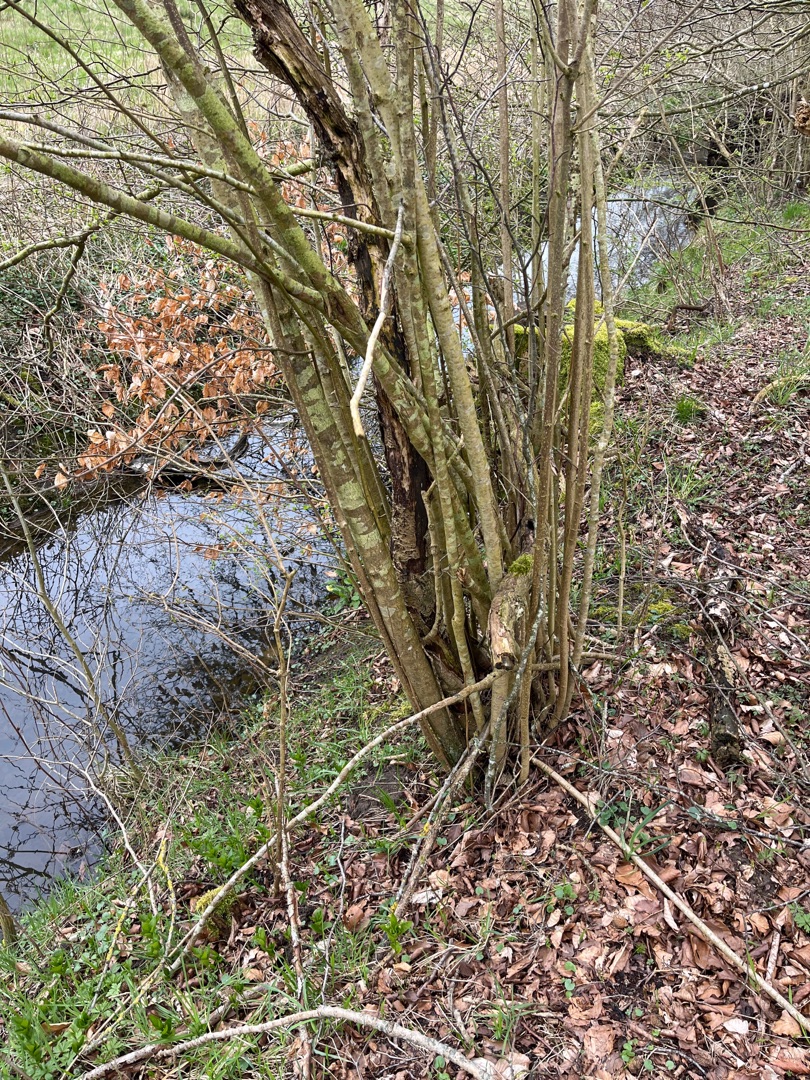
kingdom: Plantae
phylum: Tracheophyta
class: Magnoliopsida
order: Fagales
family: Betulaceae
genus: Corylus
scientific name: Corylus avellana
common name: Hassel
